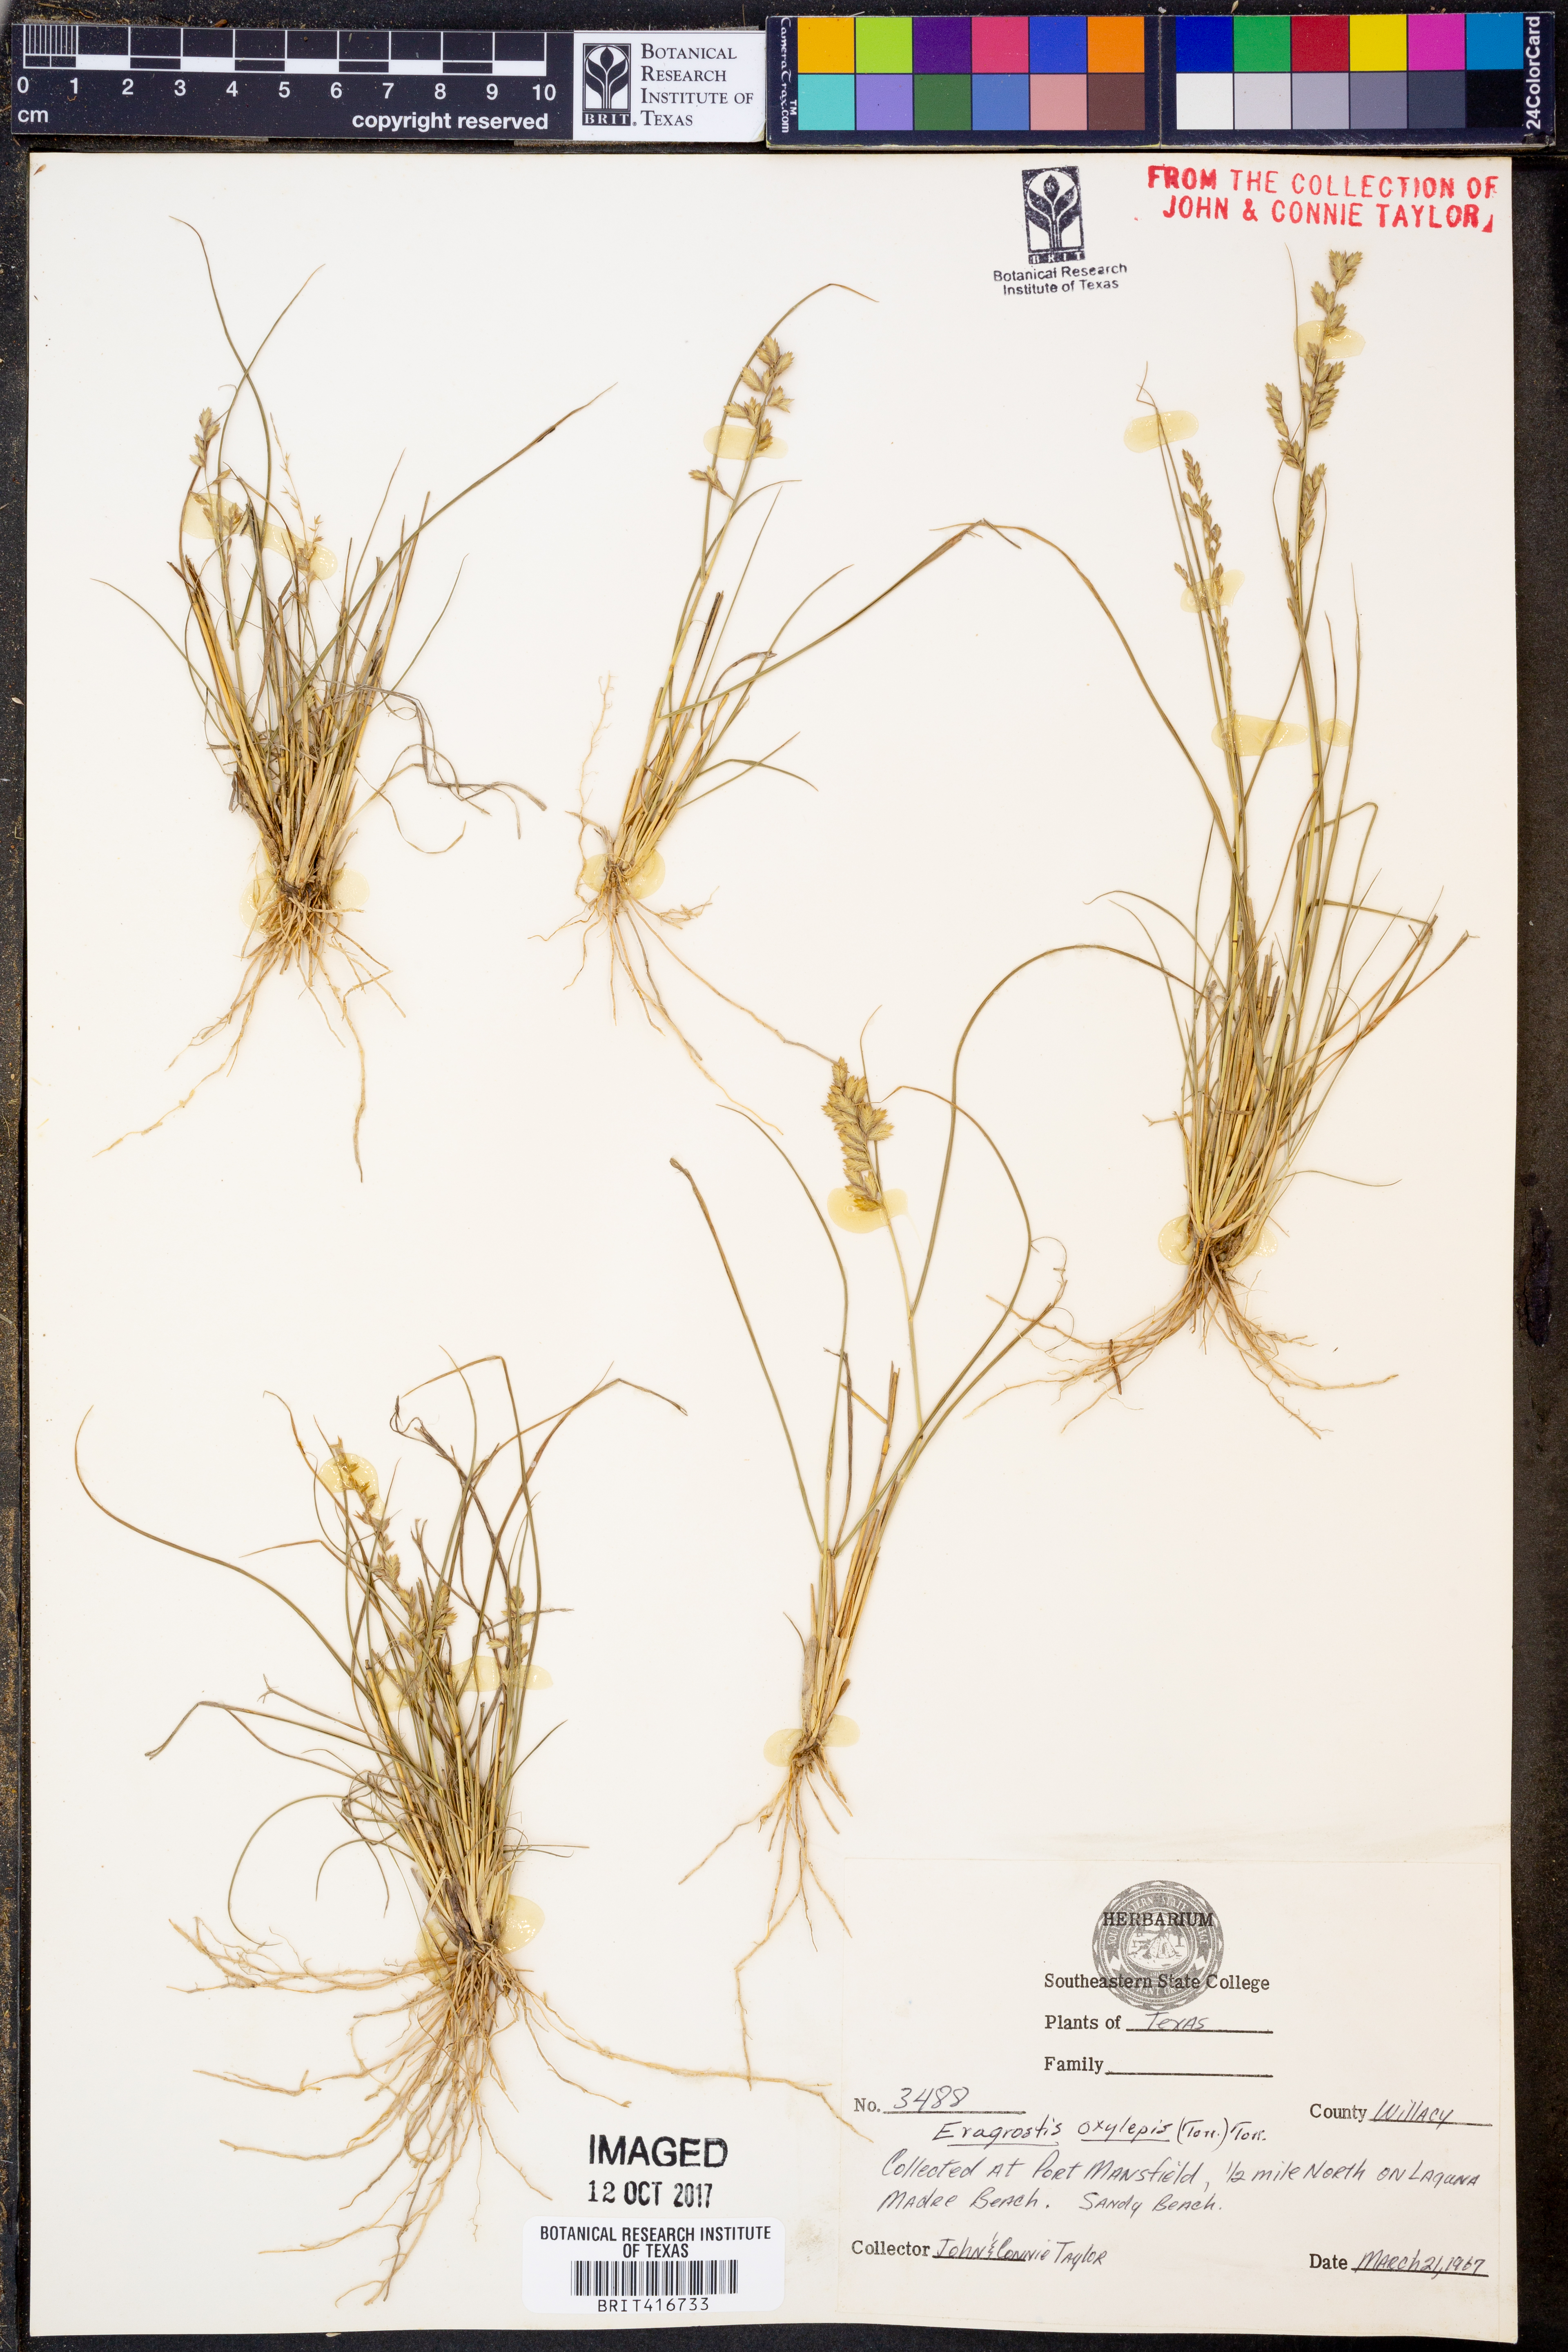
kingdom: Plantae
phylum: Tracheophyta
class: Liliopsida
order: Poales
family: Poaceae
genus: Eragrostis
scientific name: Eragrostis secundiflora
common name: Red love grass
